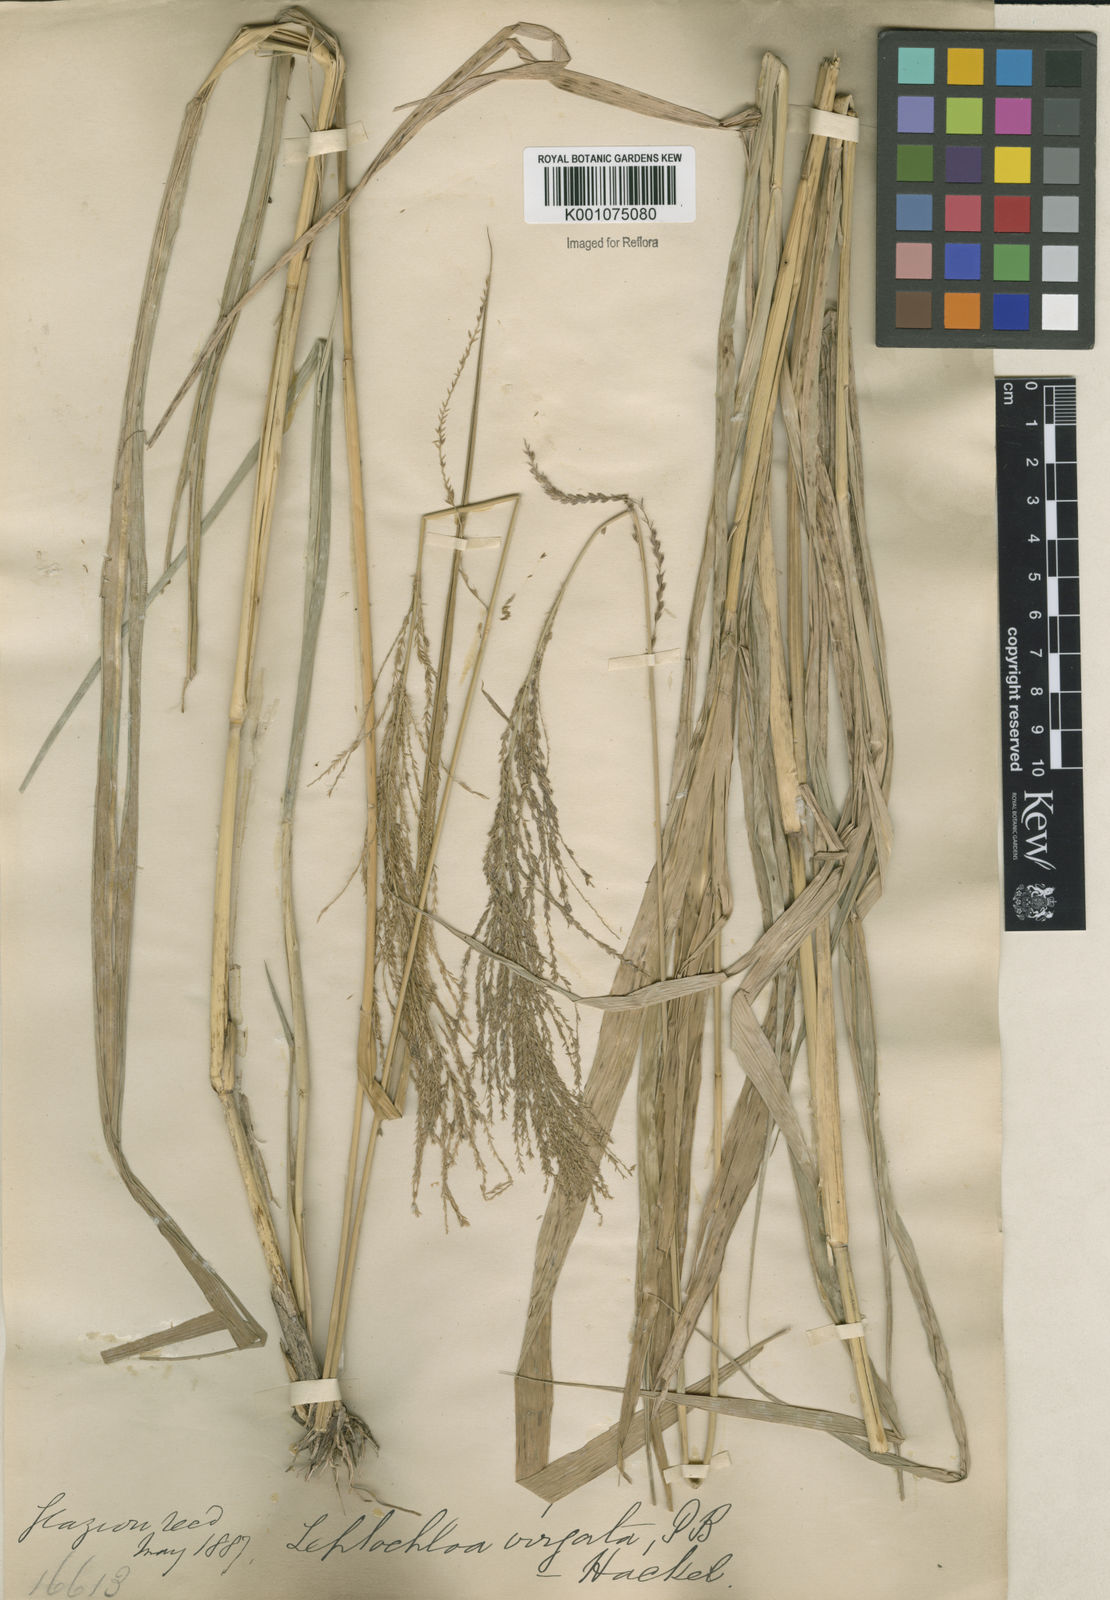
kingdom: Plantae
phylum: Tracheophyta
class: Liliopsida
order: Poales
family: Poaceae
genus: Leptochloa
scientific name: Leptochloa virgata
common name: Tropical sprangletop
